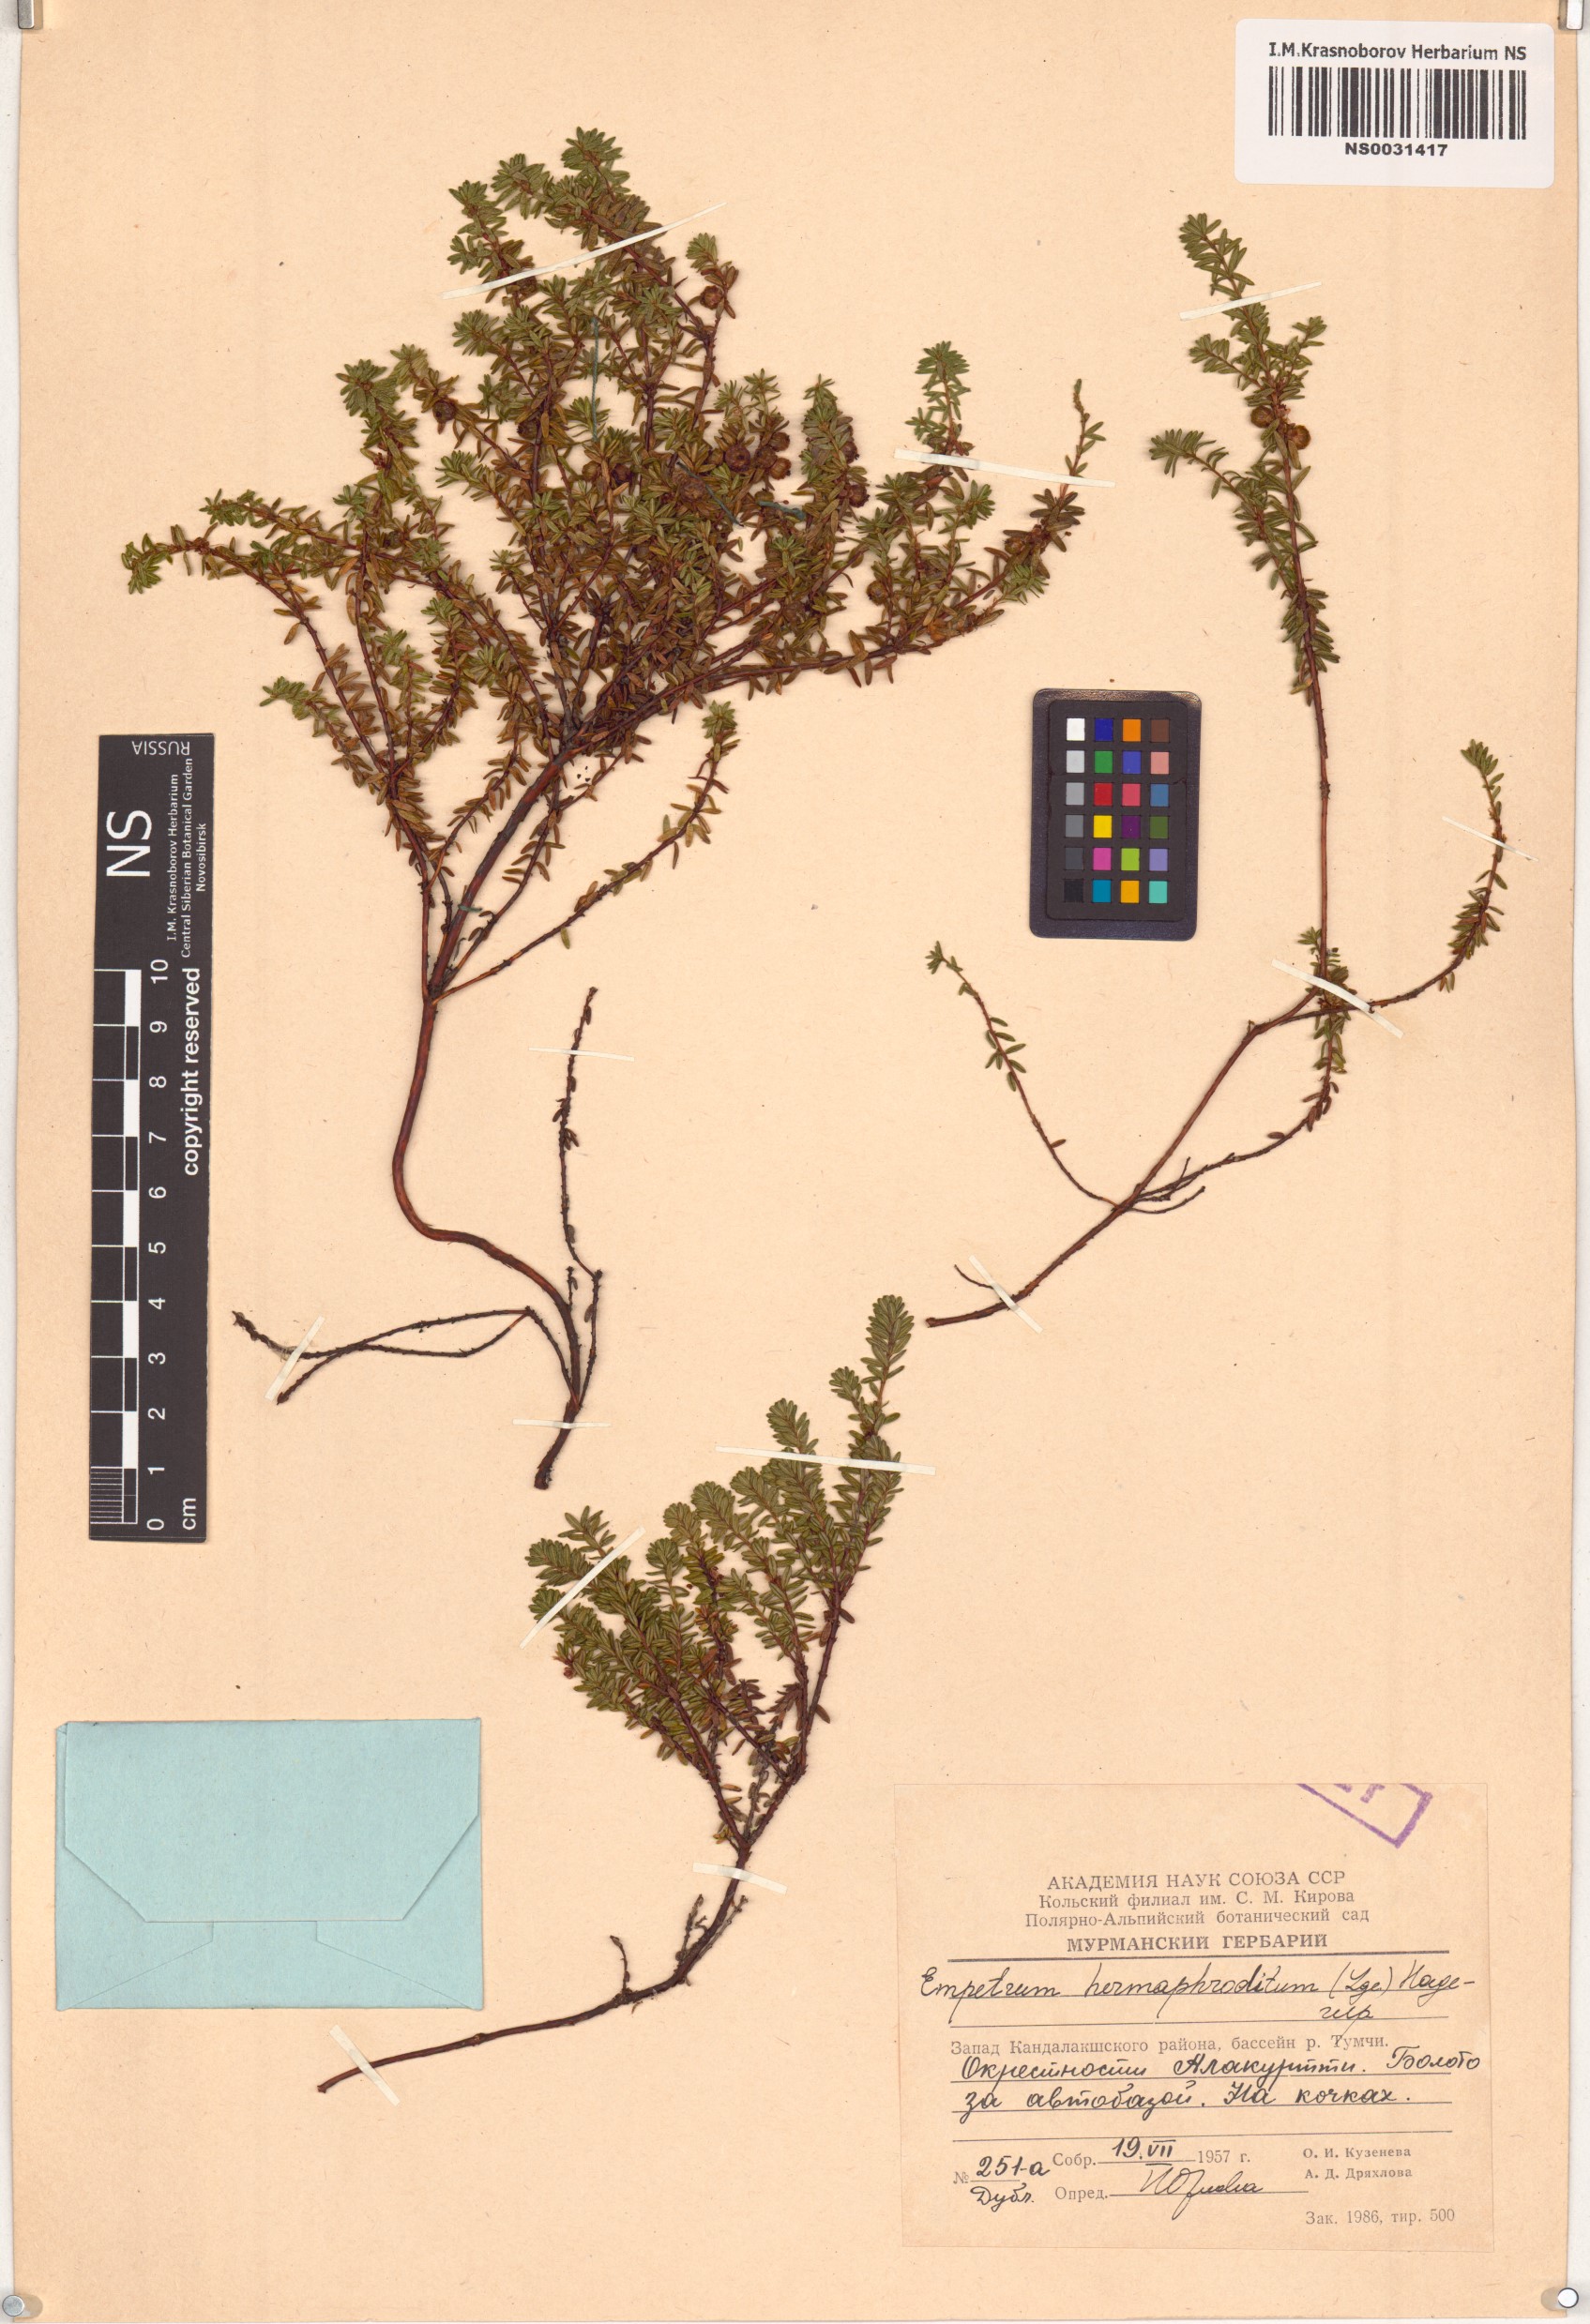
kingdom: Plantae
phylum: Tracheophyta
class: Magnoliopsida
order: Ericales
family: Ericaceae
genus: Empetrum
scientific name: Empetrum hermaphroditum
